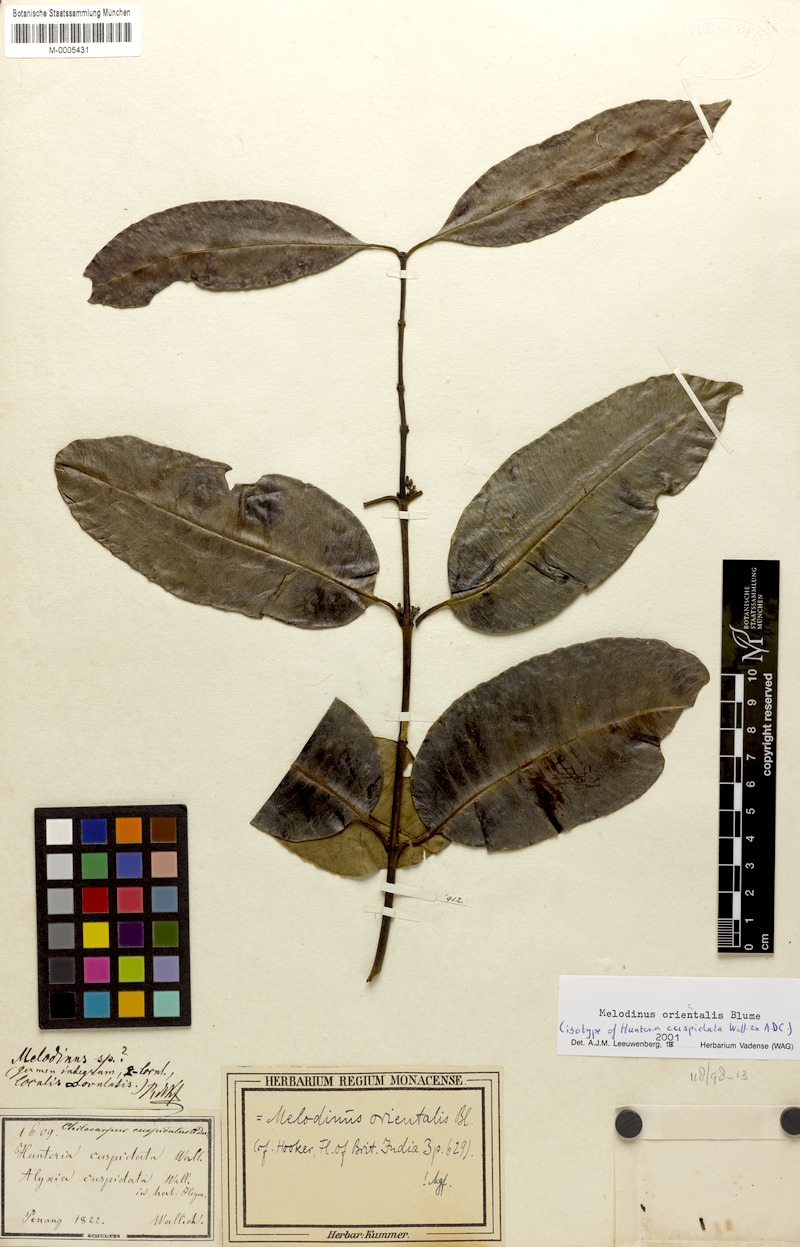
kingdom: Plantae
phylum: Tracheophyta
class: Magnoliopsida
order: Gentianales
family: Apocynaceae
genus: Melodinus
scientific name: Melodinus orientalis
